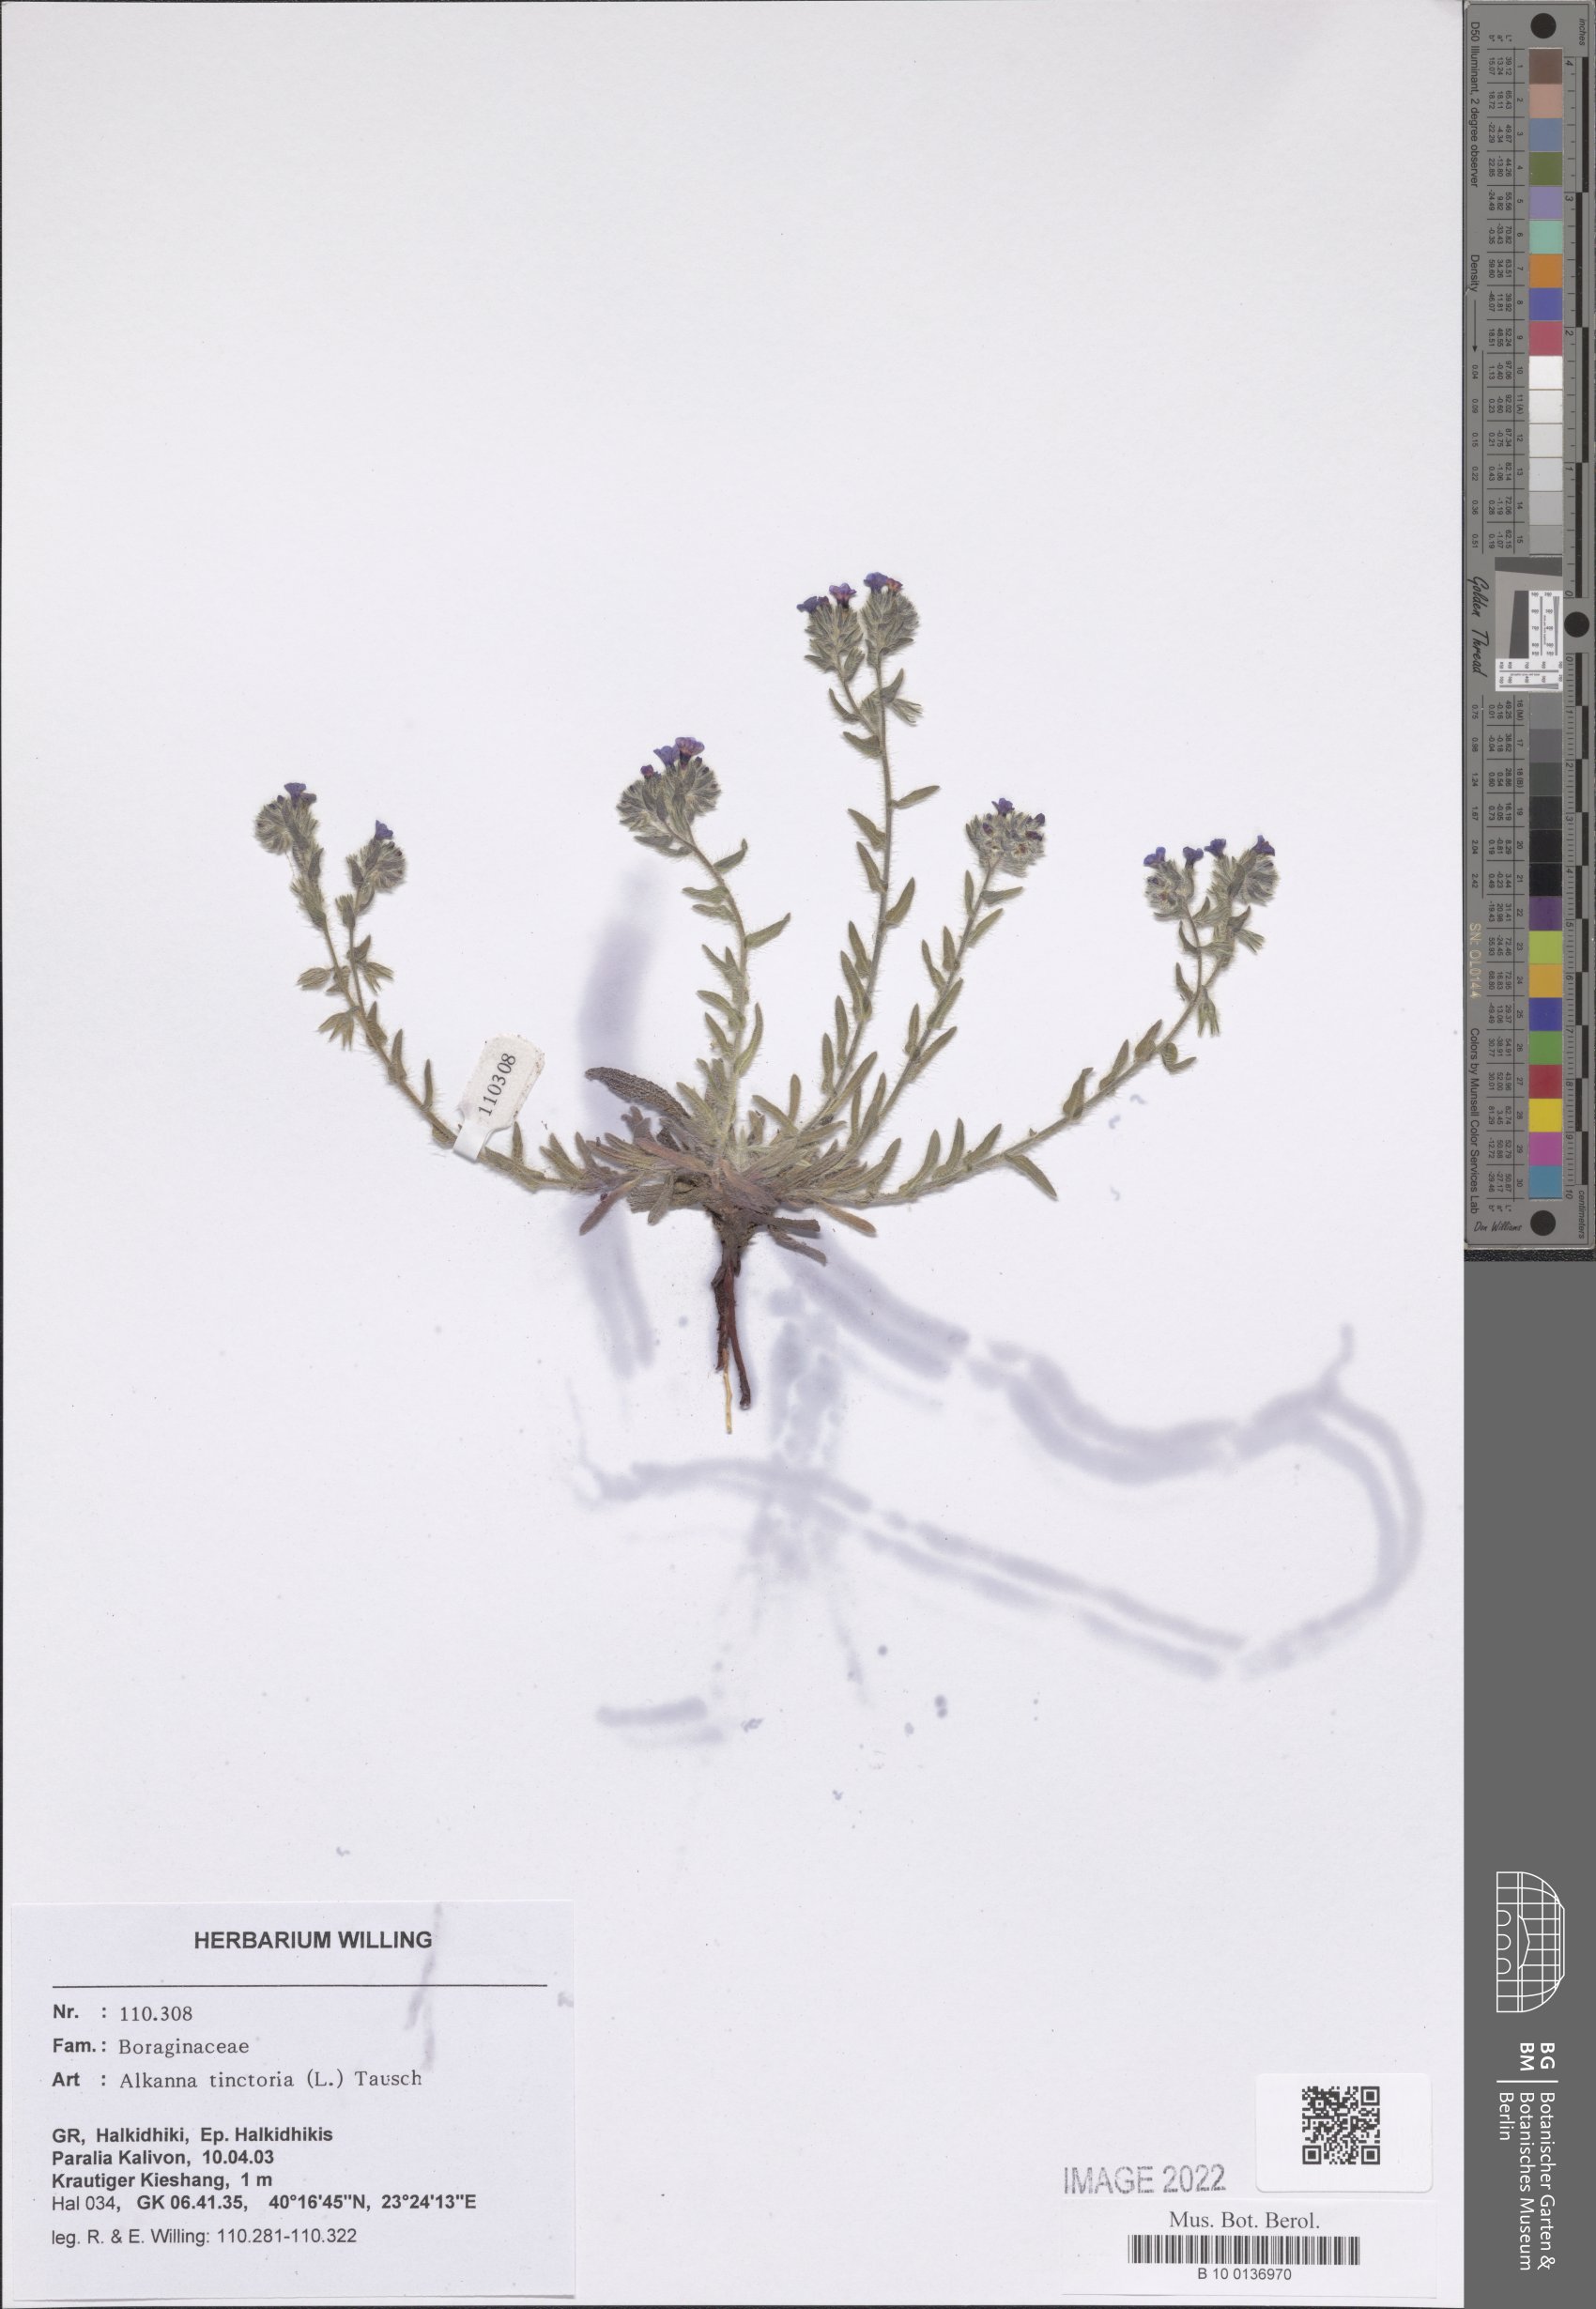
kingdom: Plantae
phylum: Tracheophyta
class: Magnoliopsida
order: Boraginales
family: Boraginaceae
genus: Alkanna
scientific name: Alkanna tinctoria
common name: Dyer's-alkanet
